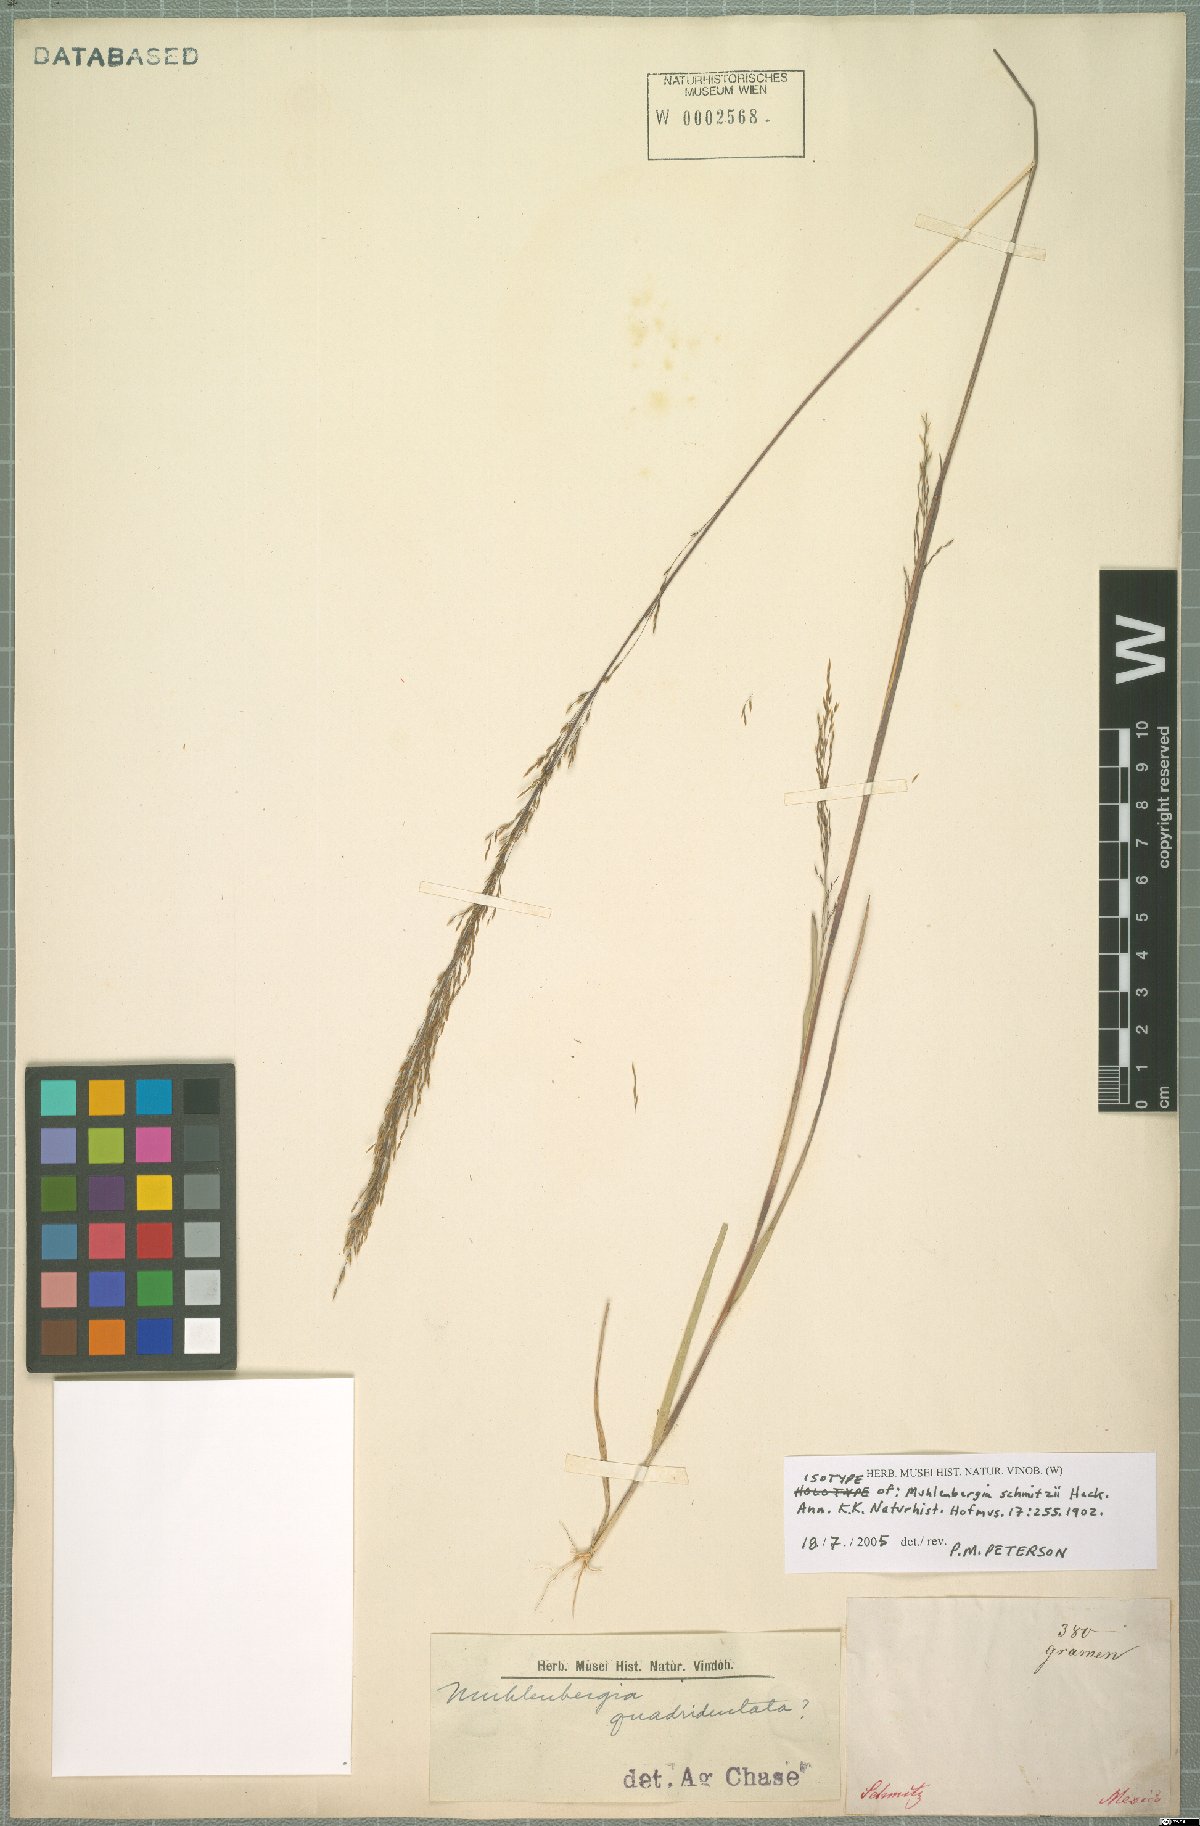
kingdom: Plantae
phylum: Tracheophyta
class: Liliopsida
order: Poales
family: Poaceae
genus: Muhlenbergia
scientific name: Muhlenbergia schmitzii
